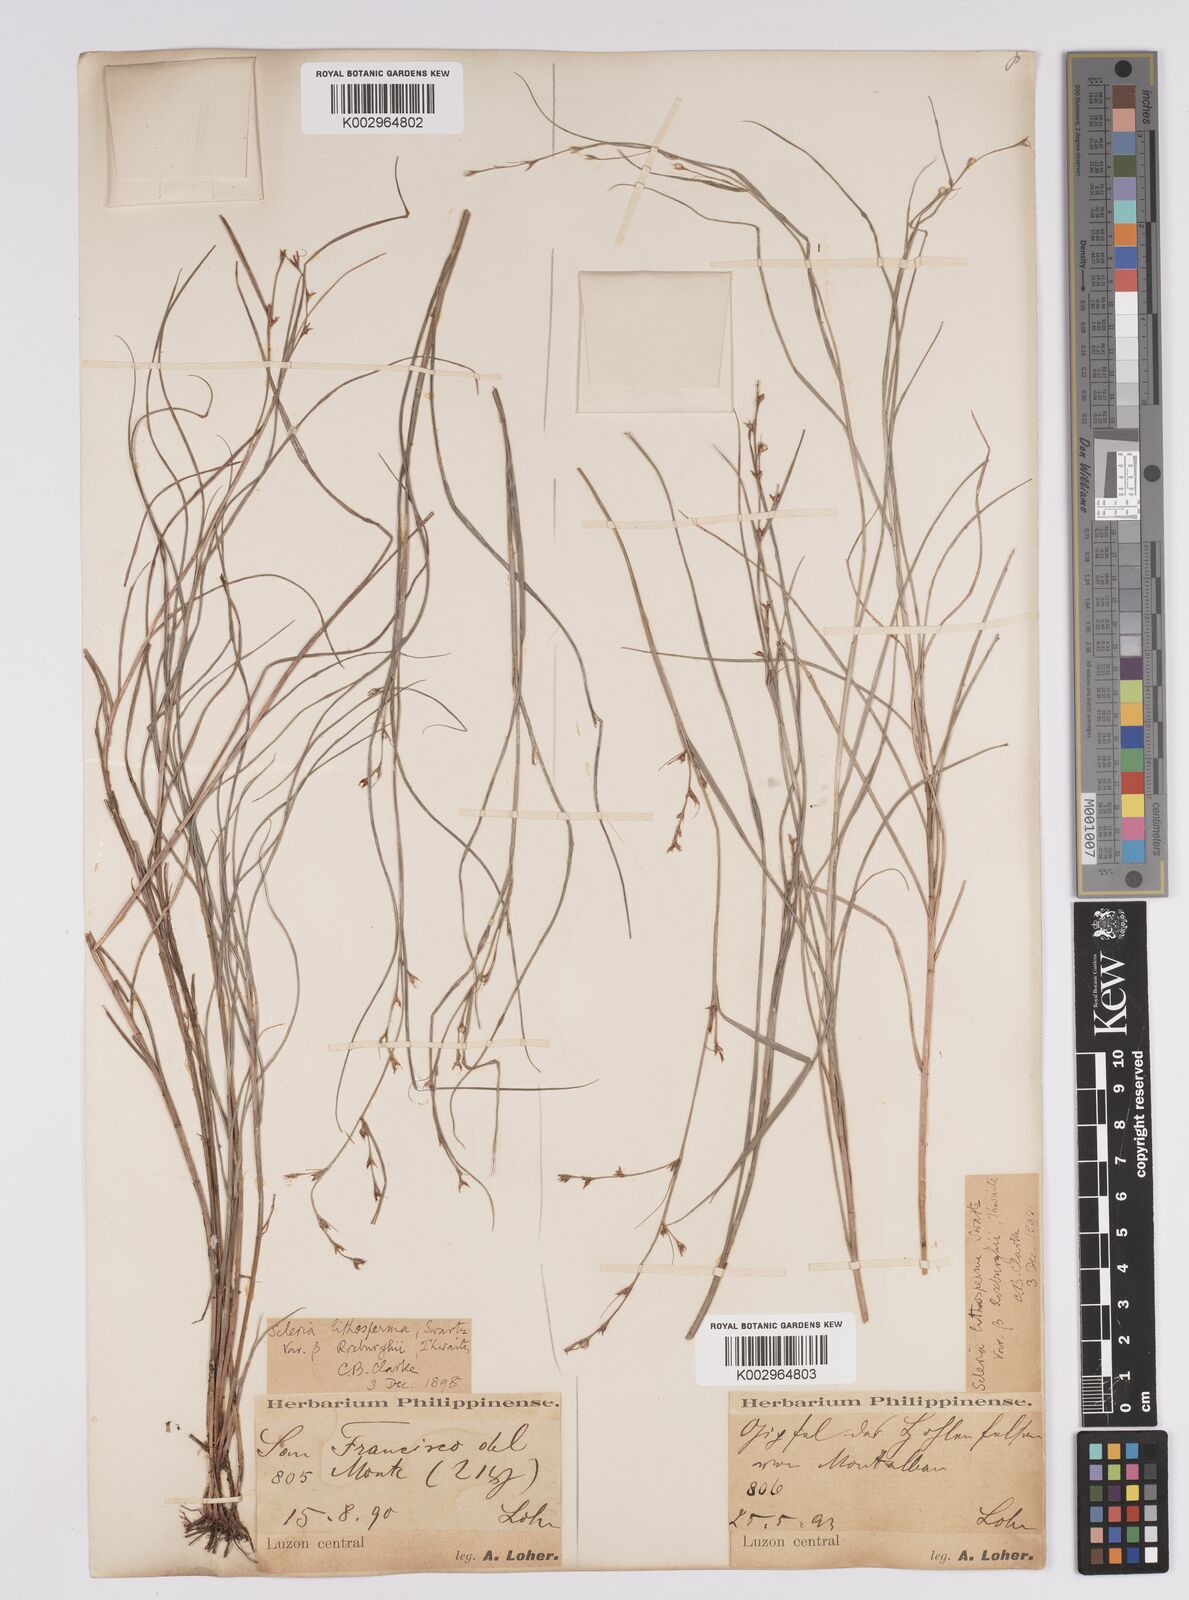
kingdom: Plantae
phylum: Tracheophyta
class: Liliopsida
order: Poales
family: Cyperaceae
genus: Scleria
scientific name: Scleria lithosperma
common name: Florida keys nut-rush
